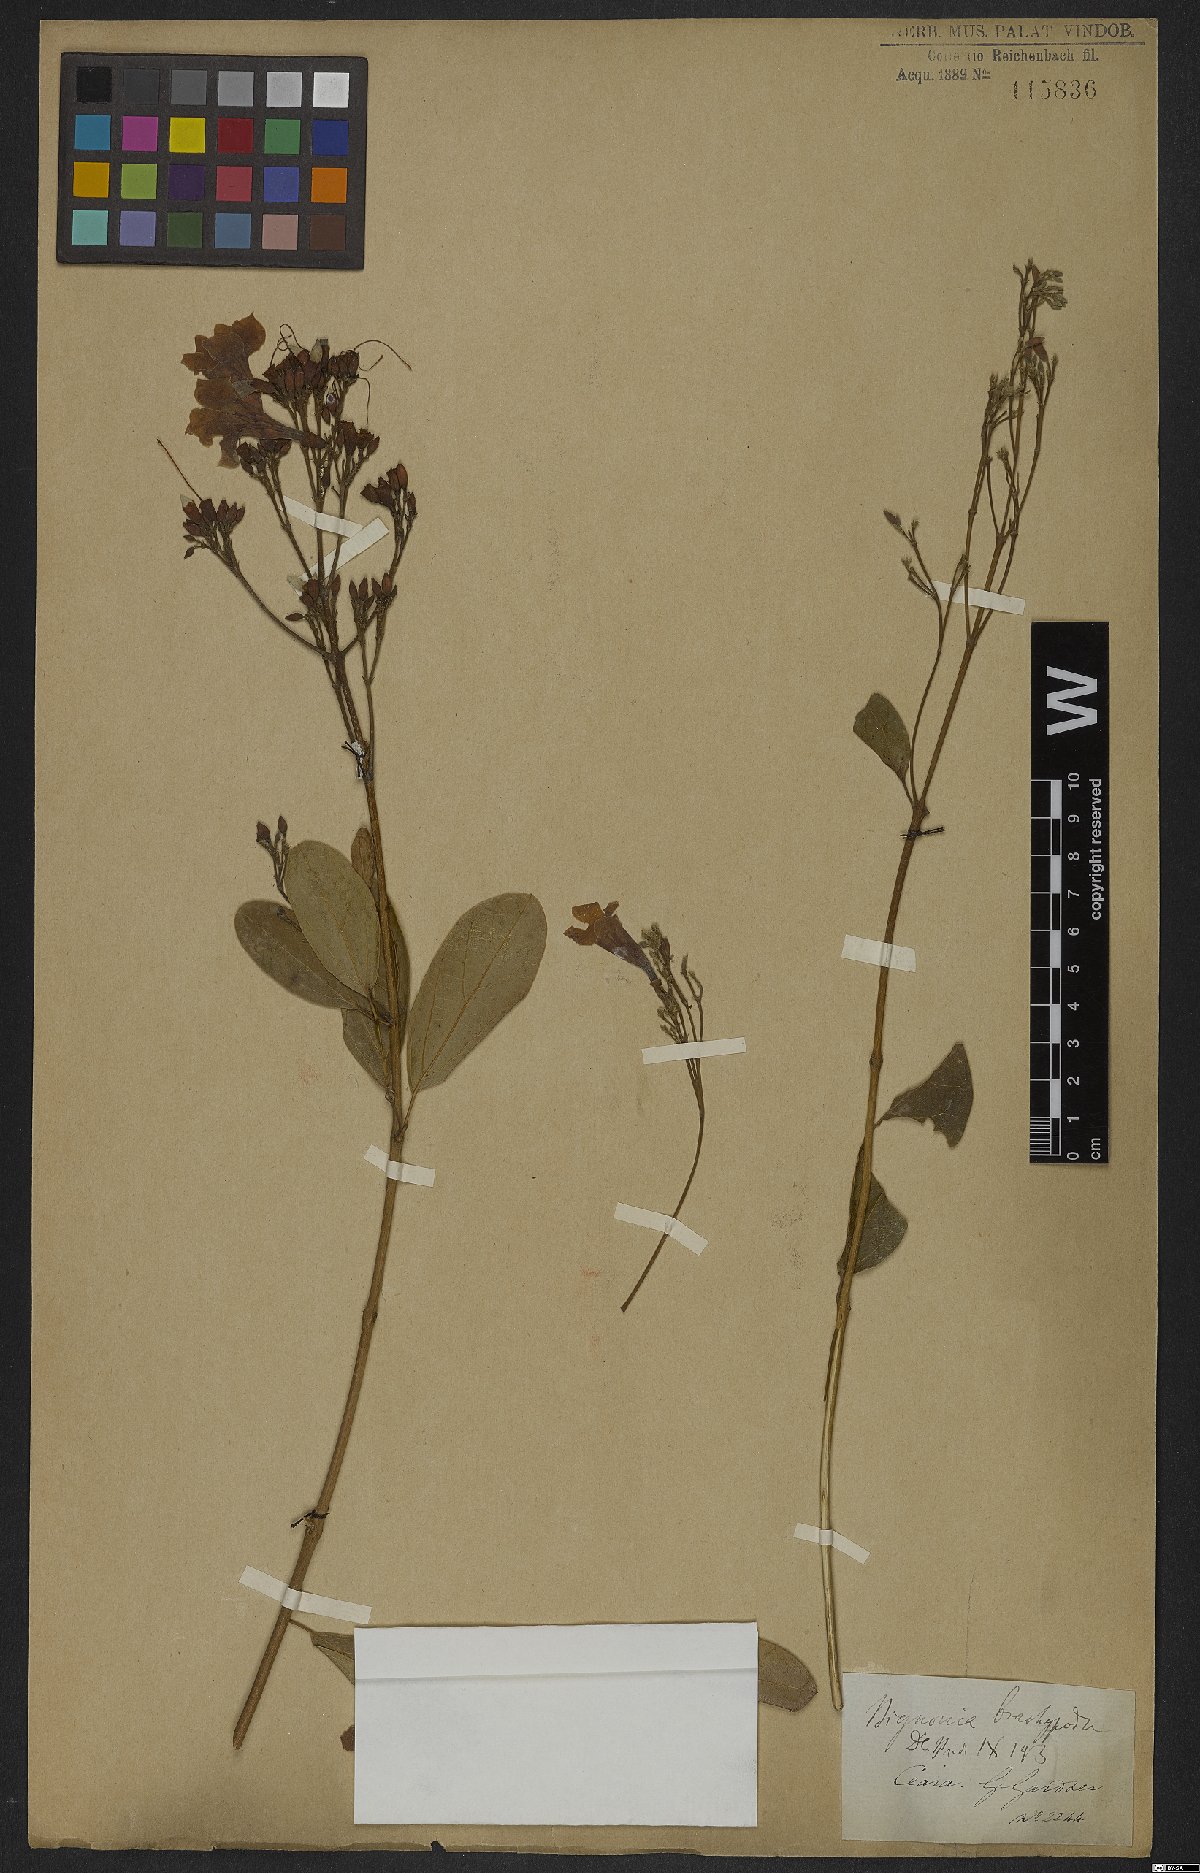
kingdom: Plantae
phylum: Tracheophyta
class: Magnoliopsida
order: Lamiales
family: Bignoniaceae
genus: Fridericia
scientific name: Fridericia platyphylla
